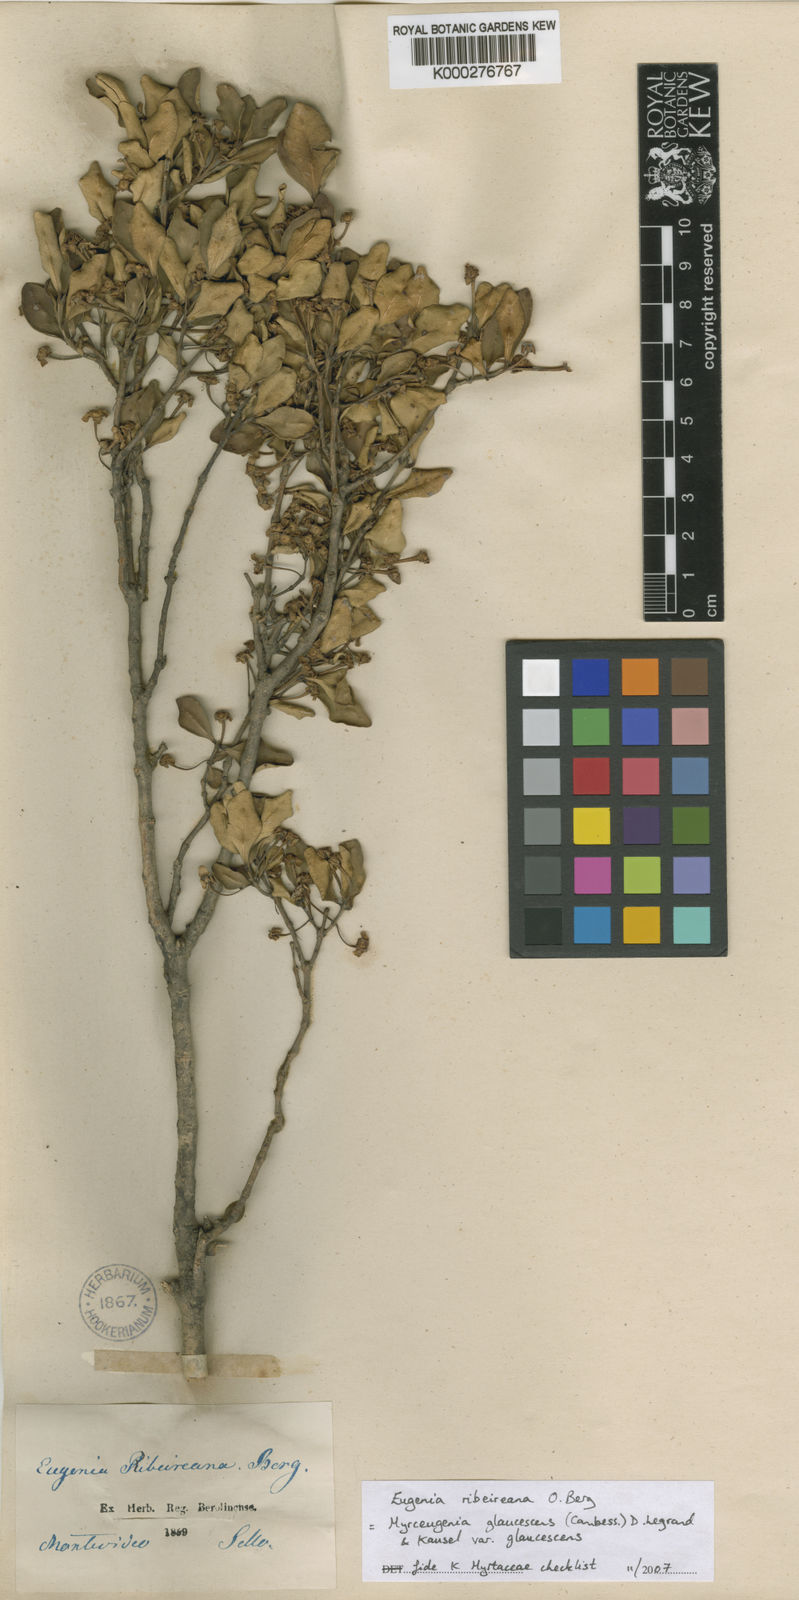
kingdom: Plantae
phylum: Tracheophyta
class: Magnoliopsida
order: Myrtales
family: Myrtaceae
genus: Myrceugenia
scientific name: Myrceugenia glaucescens
